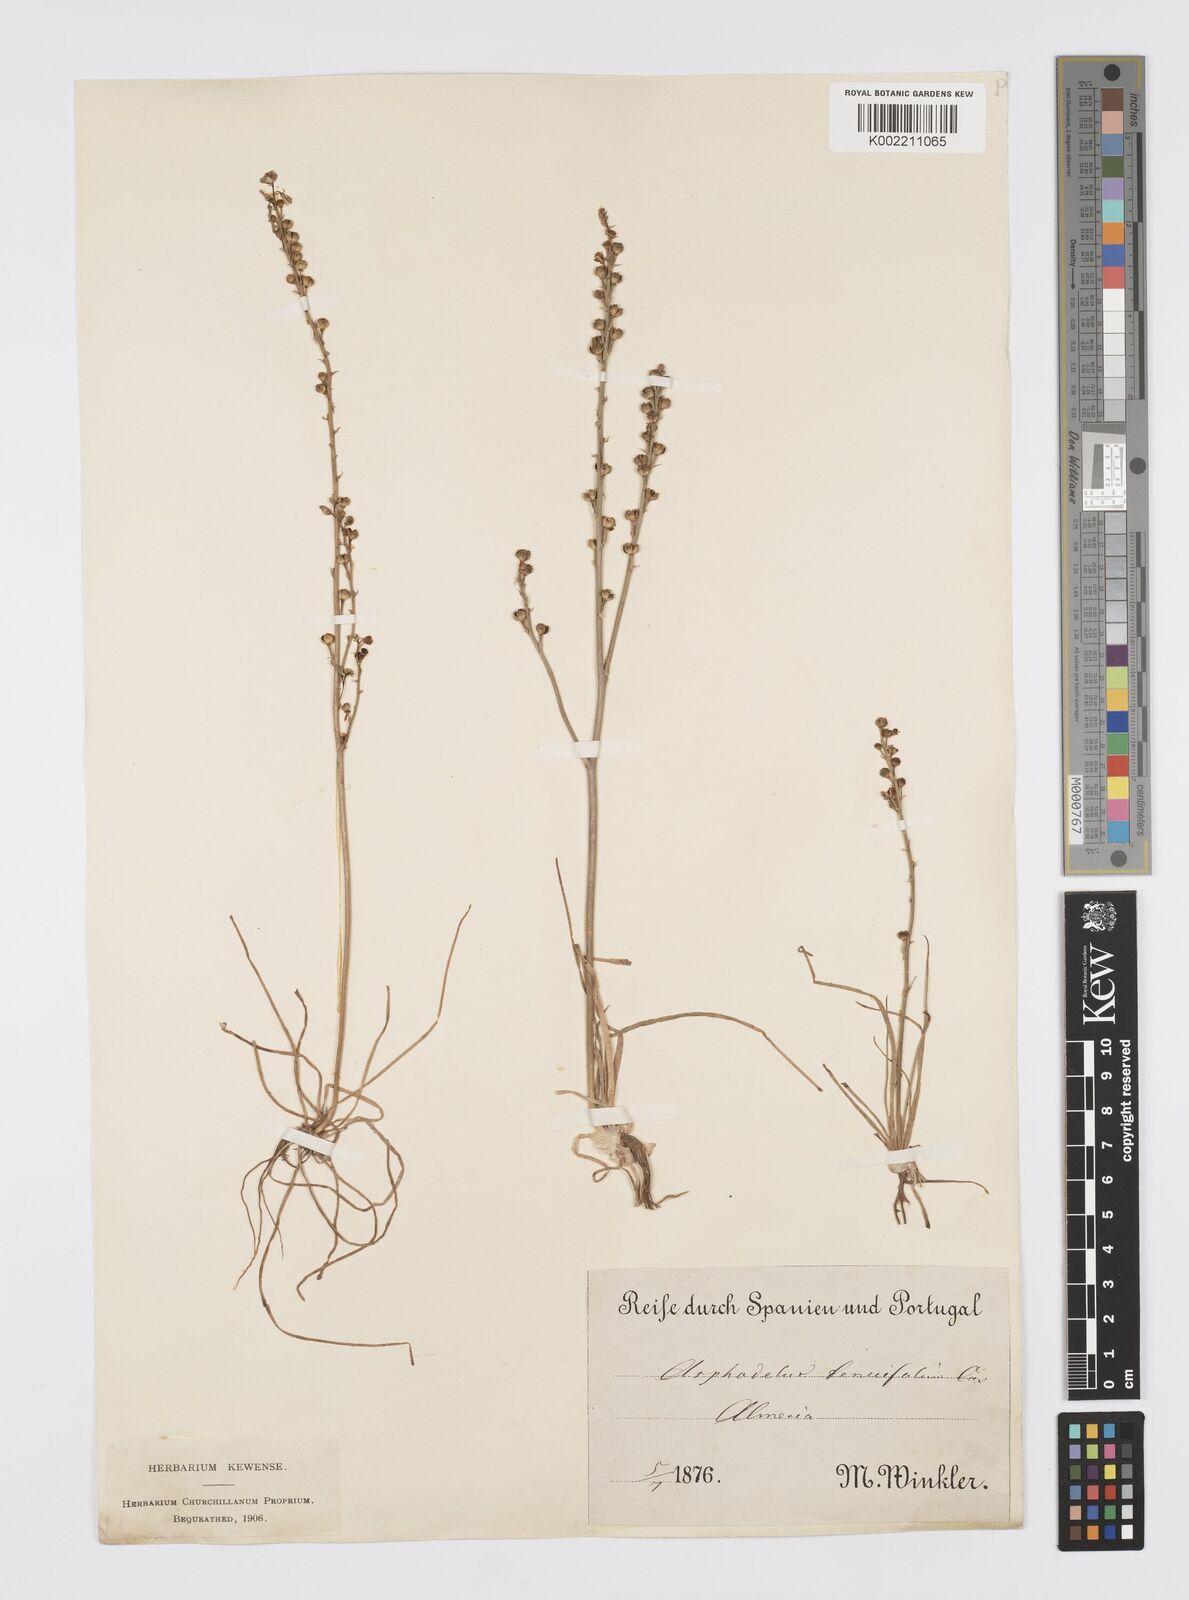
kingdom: Plantae
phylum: Tracheophyta
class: Liliopsida
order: Asparagales
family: Asphodelaceae
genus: Asphodelus
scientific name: Asphodelus tenuifolius
